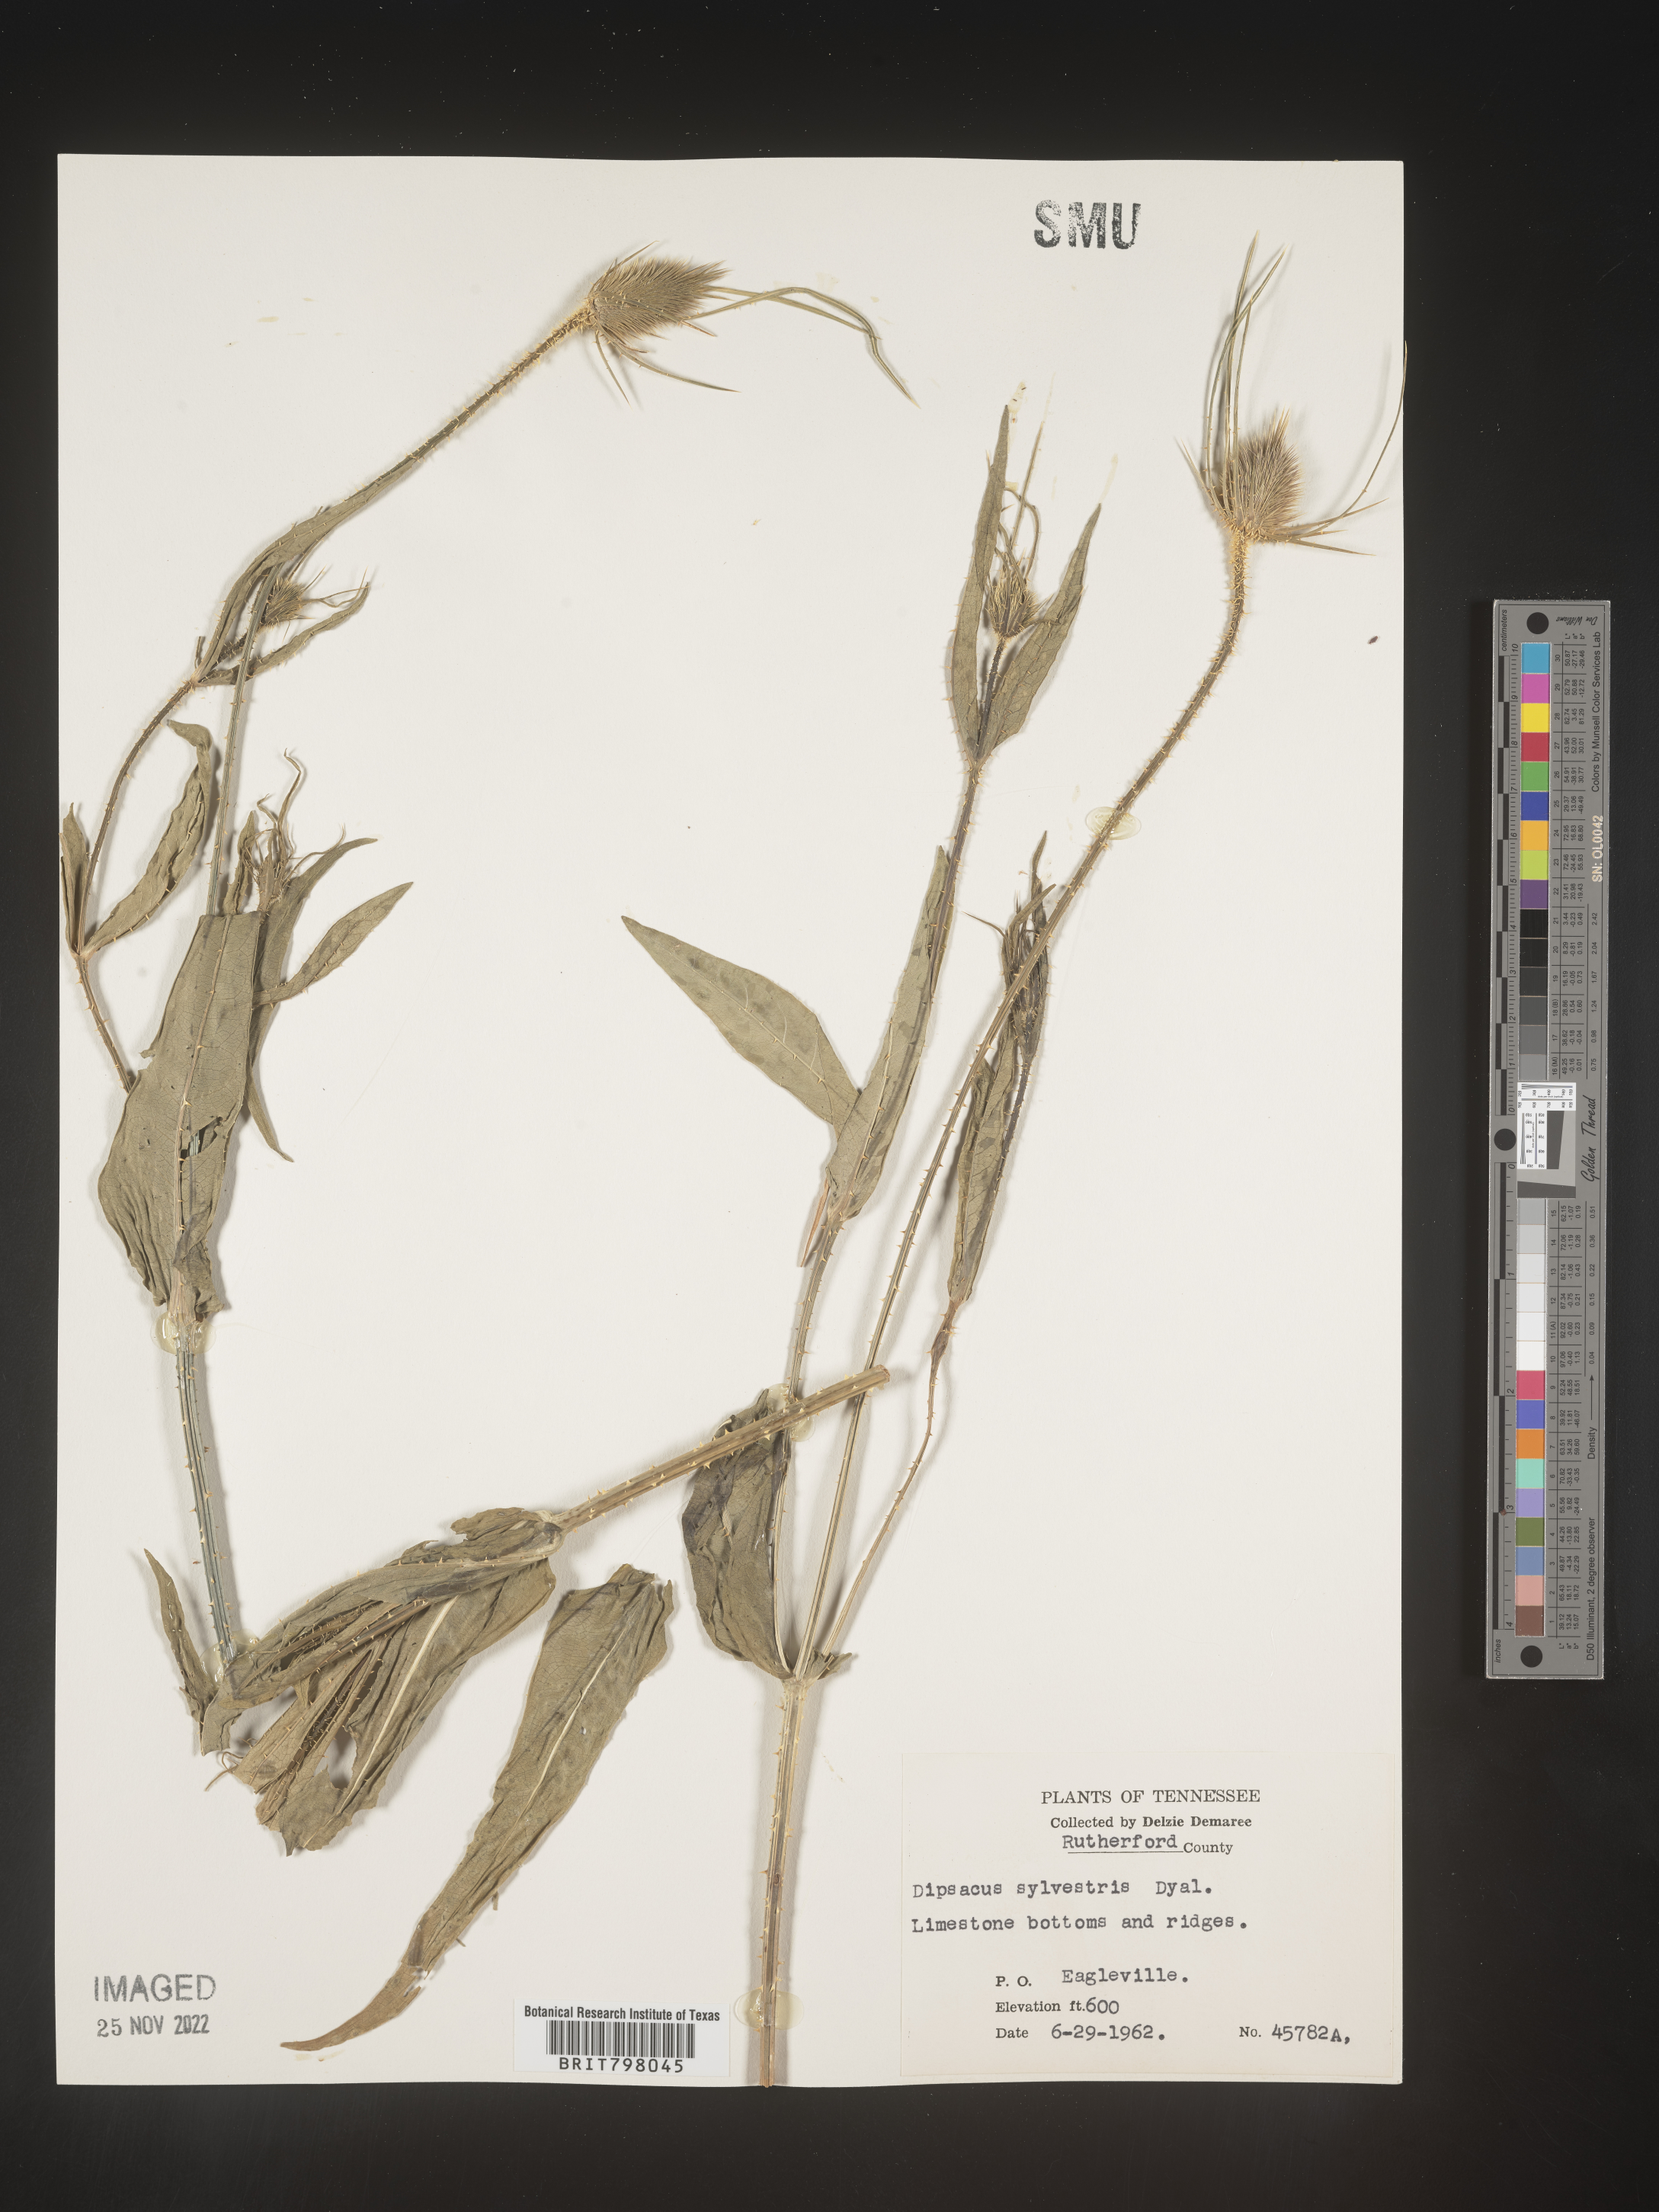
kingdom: Plantae
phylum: Tracheophyta
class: Magnoliopsida
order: Dipsacales
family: Caprifoliaceae
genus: Dipsacus
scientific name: Dipsacus fullonum
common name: Teasel
